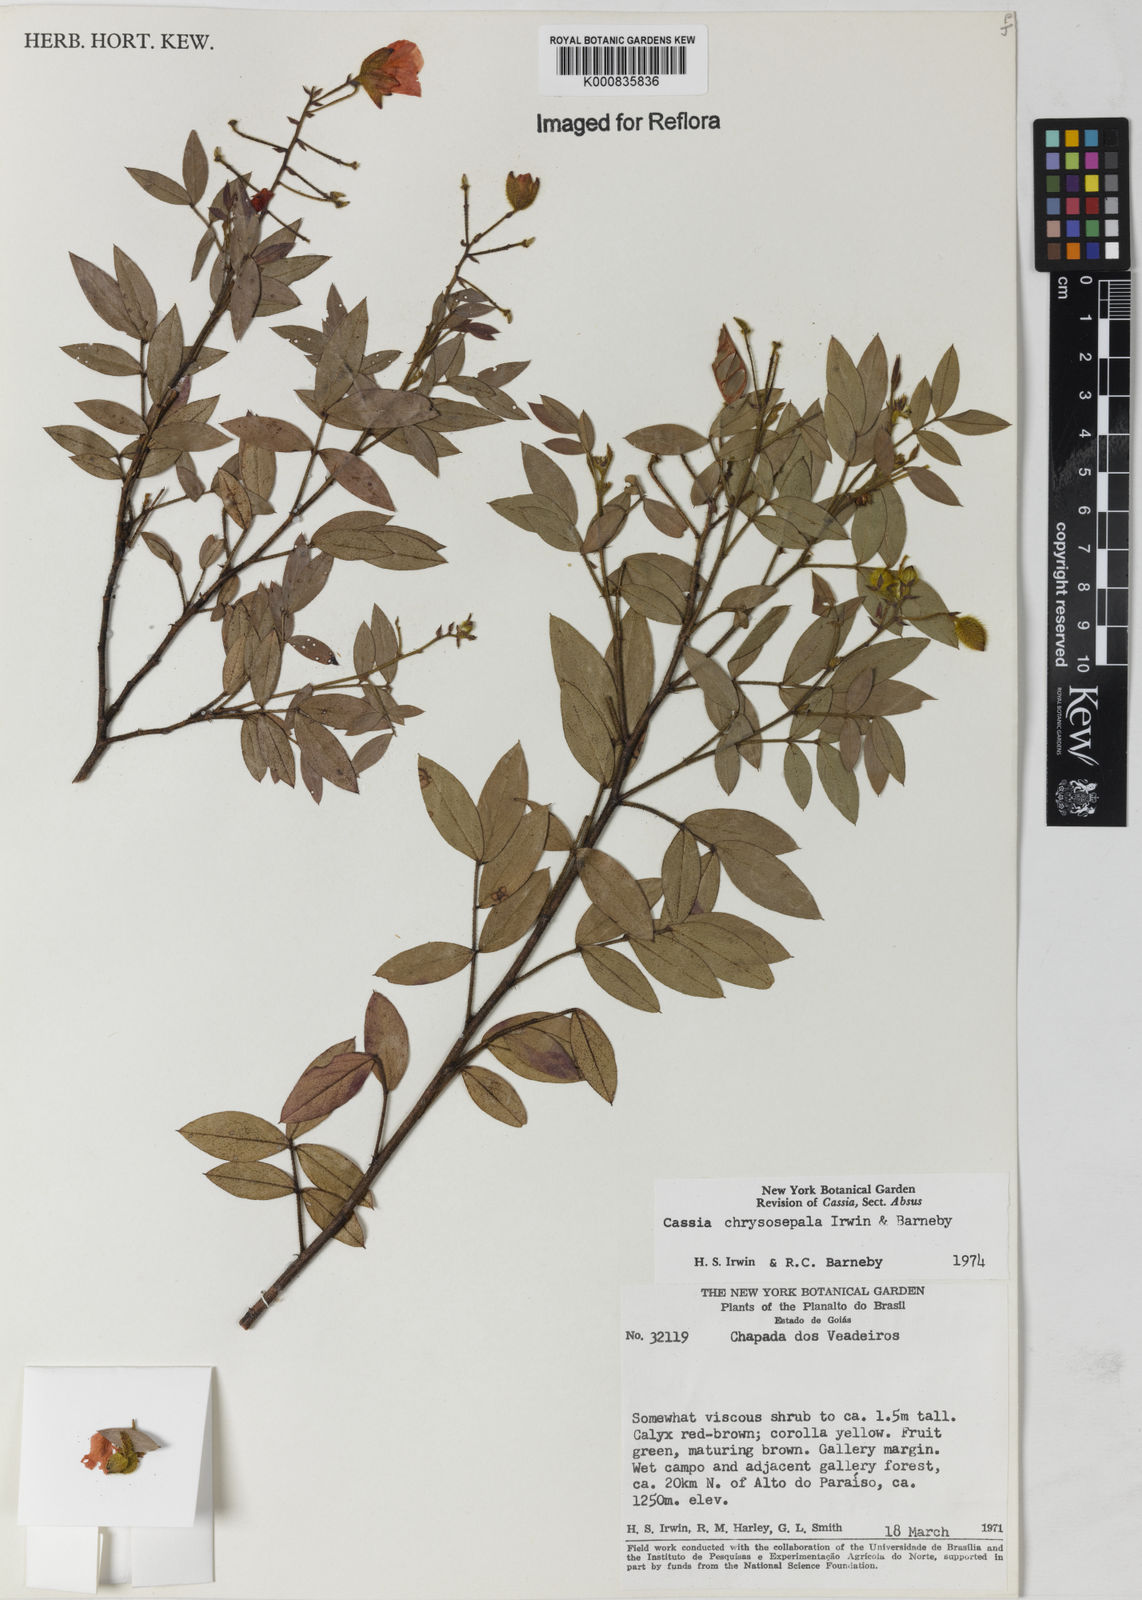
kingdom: Plantae
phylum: Tracheophyta
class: Magnoliopsida
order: Fabales
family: Fabaceae
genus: Chamaecrista
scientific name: Chamaecrista chrysosepala
